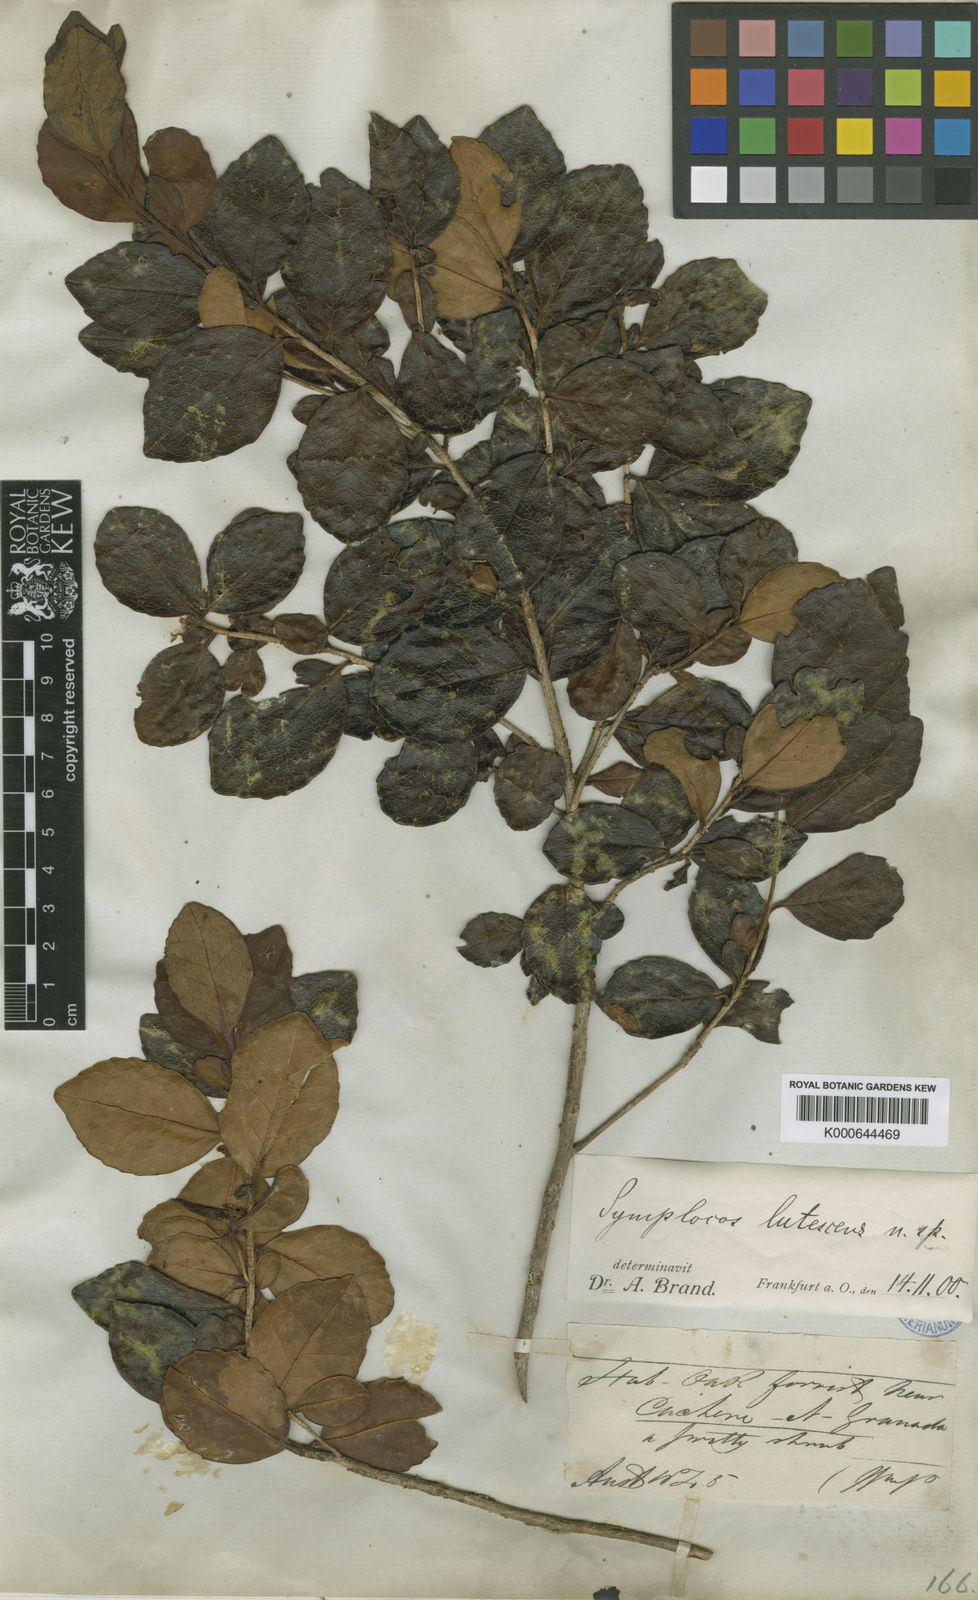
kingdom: Plantae
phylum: Tracheophyta
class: Magnoliopsida
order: Ericales
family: Symplocaceae
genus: Symplocos
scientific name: Symplocos lutescens
